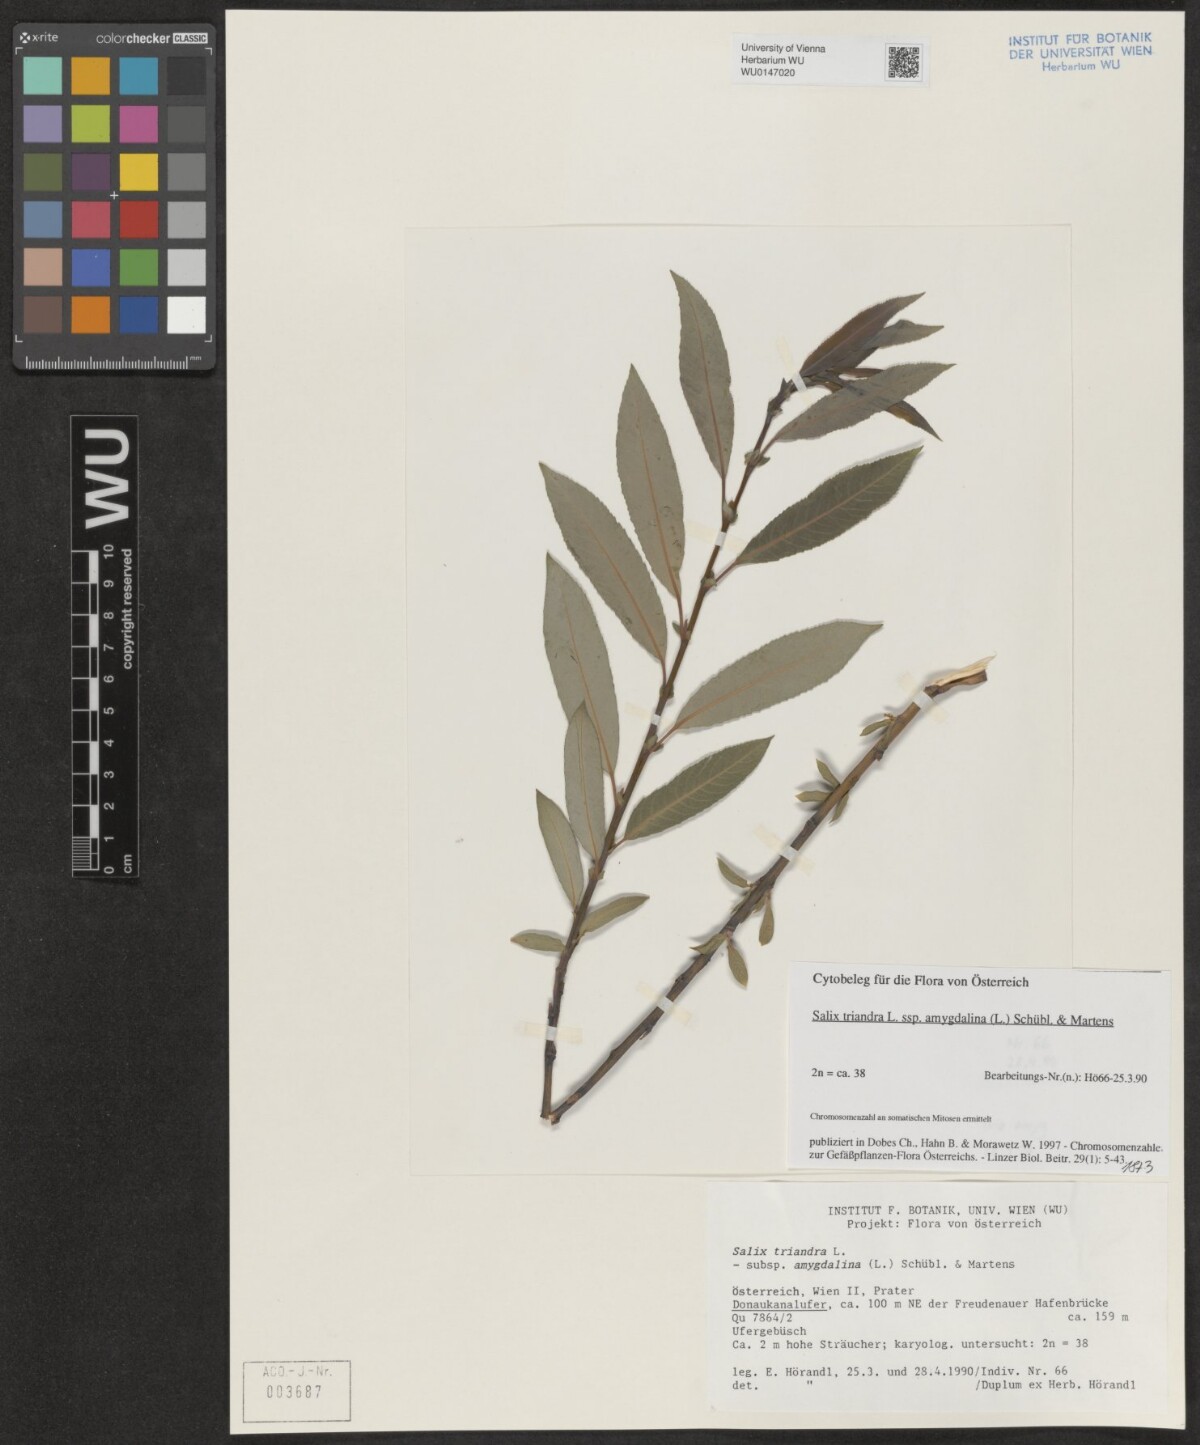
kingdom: Plantae
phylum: Tracheophyta
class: Magnoliopsida
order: Malpighiales
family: Salicaceae
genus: Salix
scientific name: Salix triandra
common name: Almond willow
